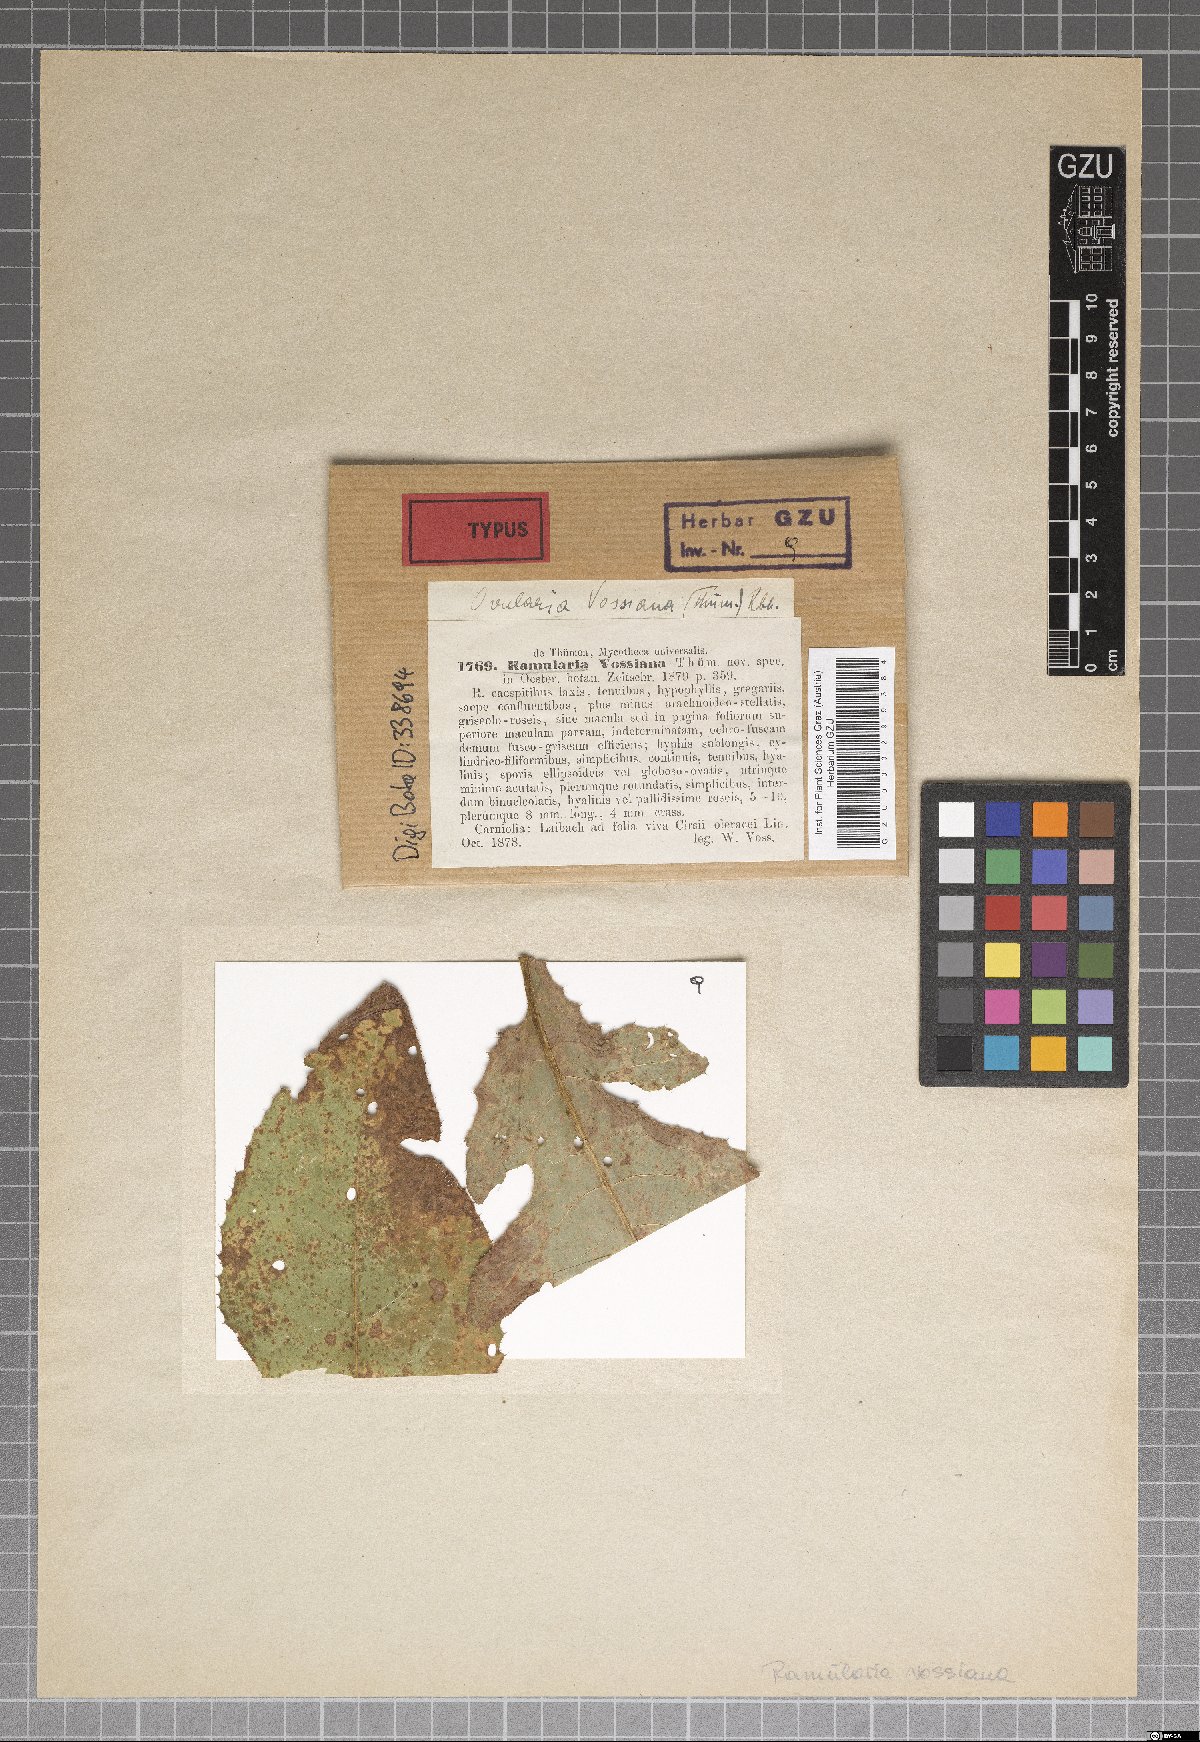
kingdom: Fungi
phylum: Ascomycota
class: Dothideomycetes
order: Mycosphaerellales
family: Mycosphaerellaceae
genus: Ramularia
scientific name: Ramularia vossiana
